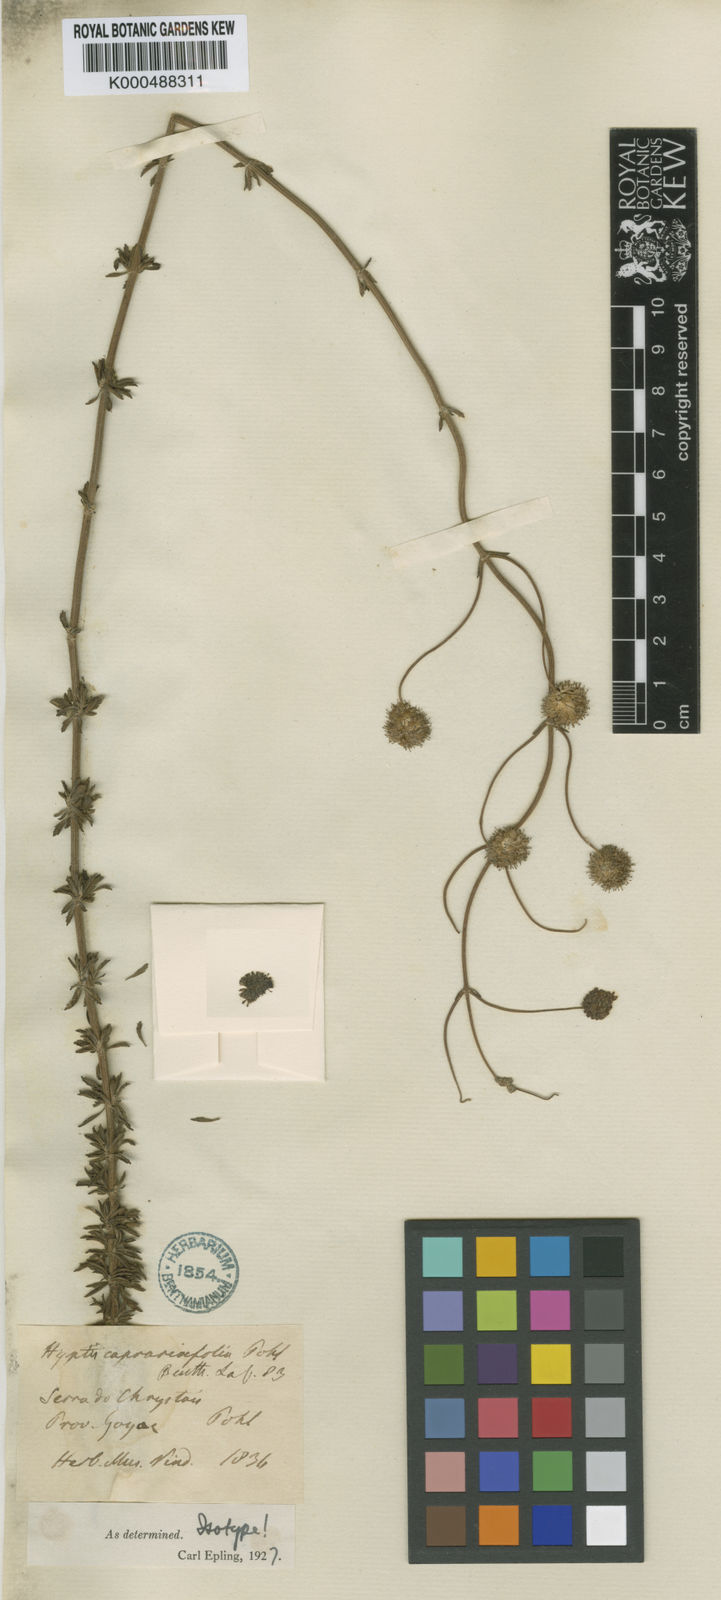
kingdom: Plantae
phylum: Tracheophyta
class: Magnoliopsida
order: Lamiales
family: Lamiaceae
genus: Cyanocephalus
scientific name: Cyanocephalus caprariifolius
